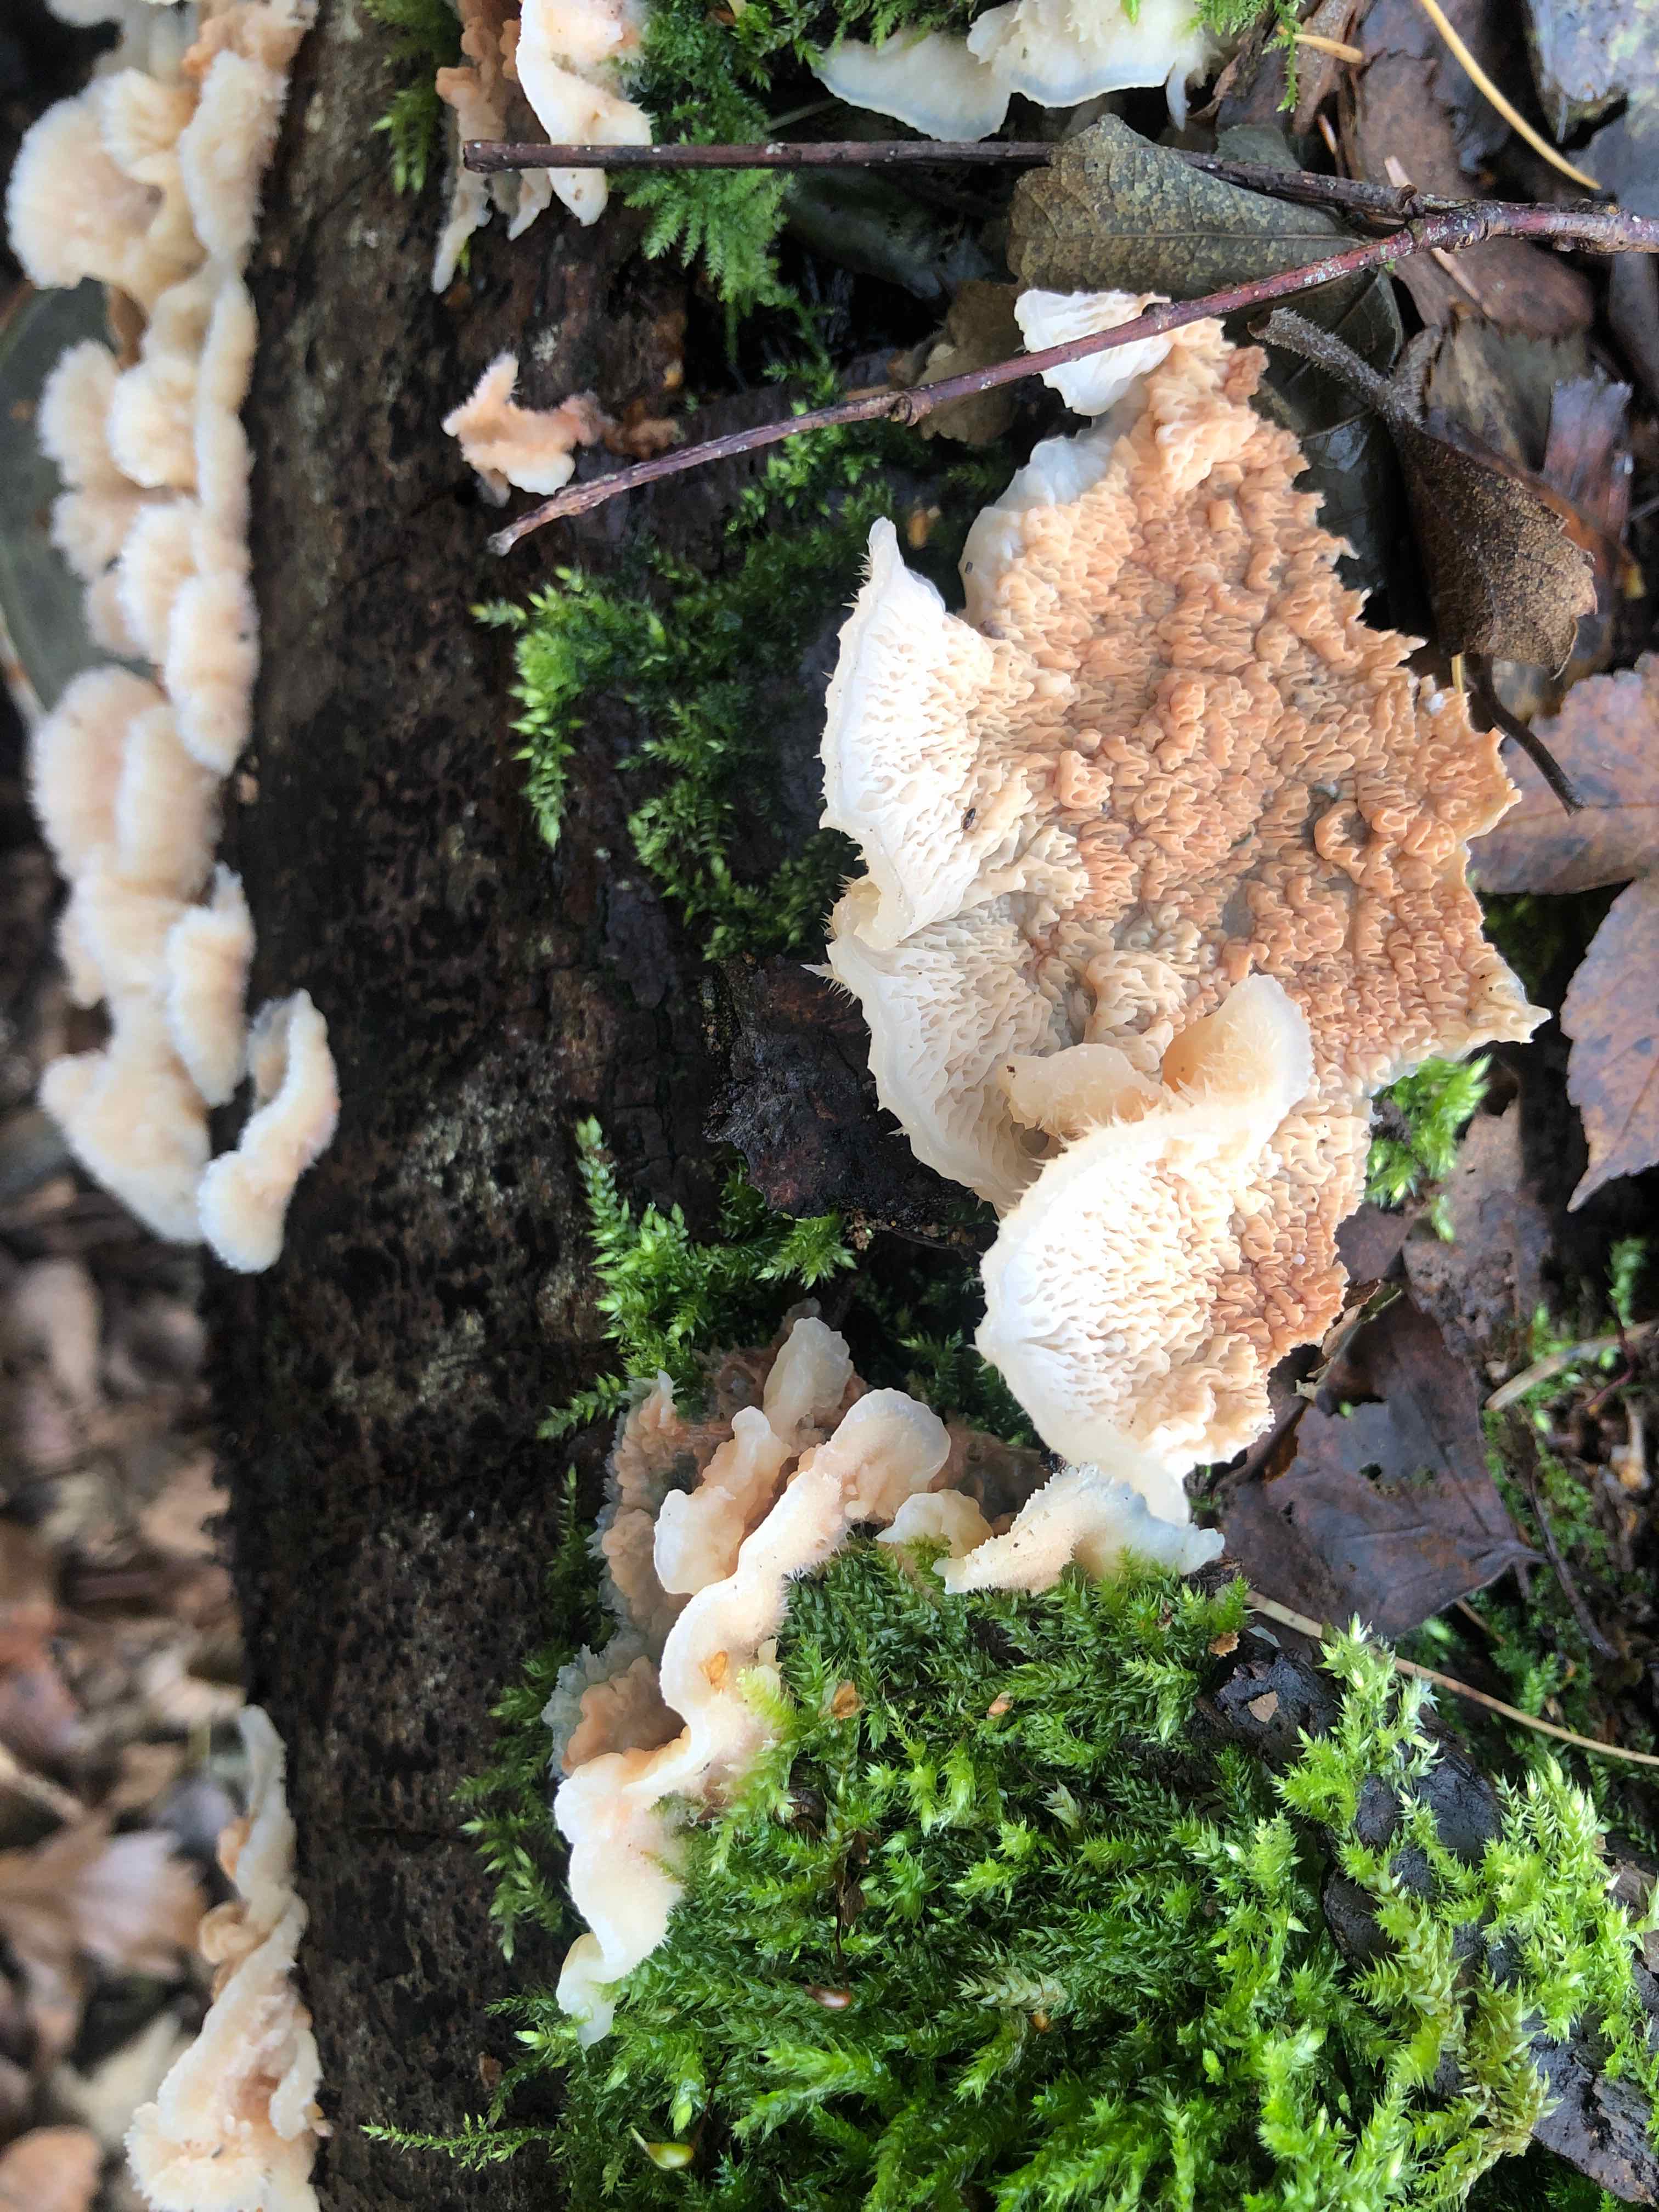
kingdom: Fungi
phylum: Basidiomycota
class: Agaricomycetes
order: Polyporales
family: Meruliaceae
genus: Phlebia
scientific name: Phlebia tremellosa
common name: bævrende åresvamp
